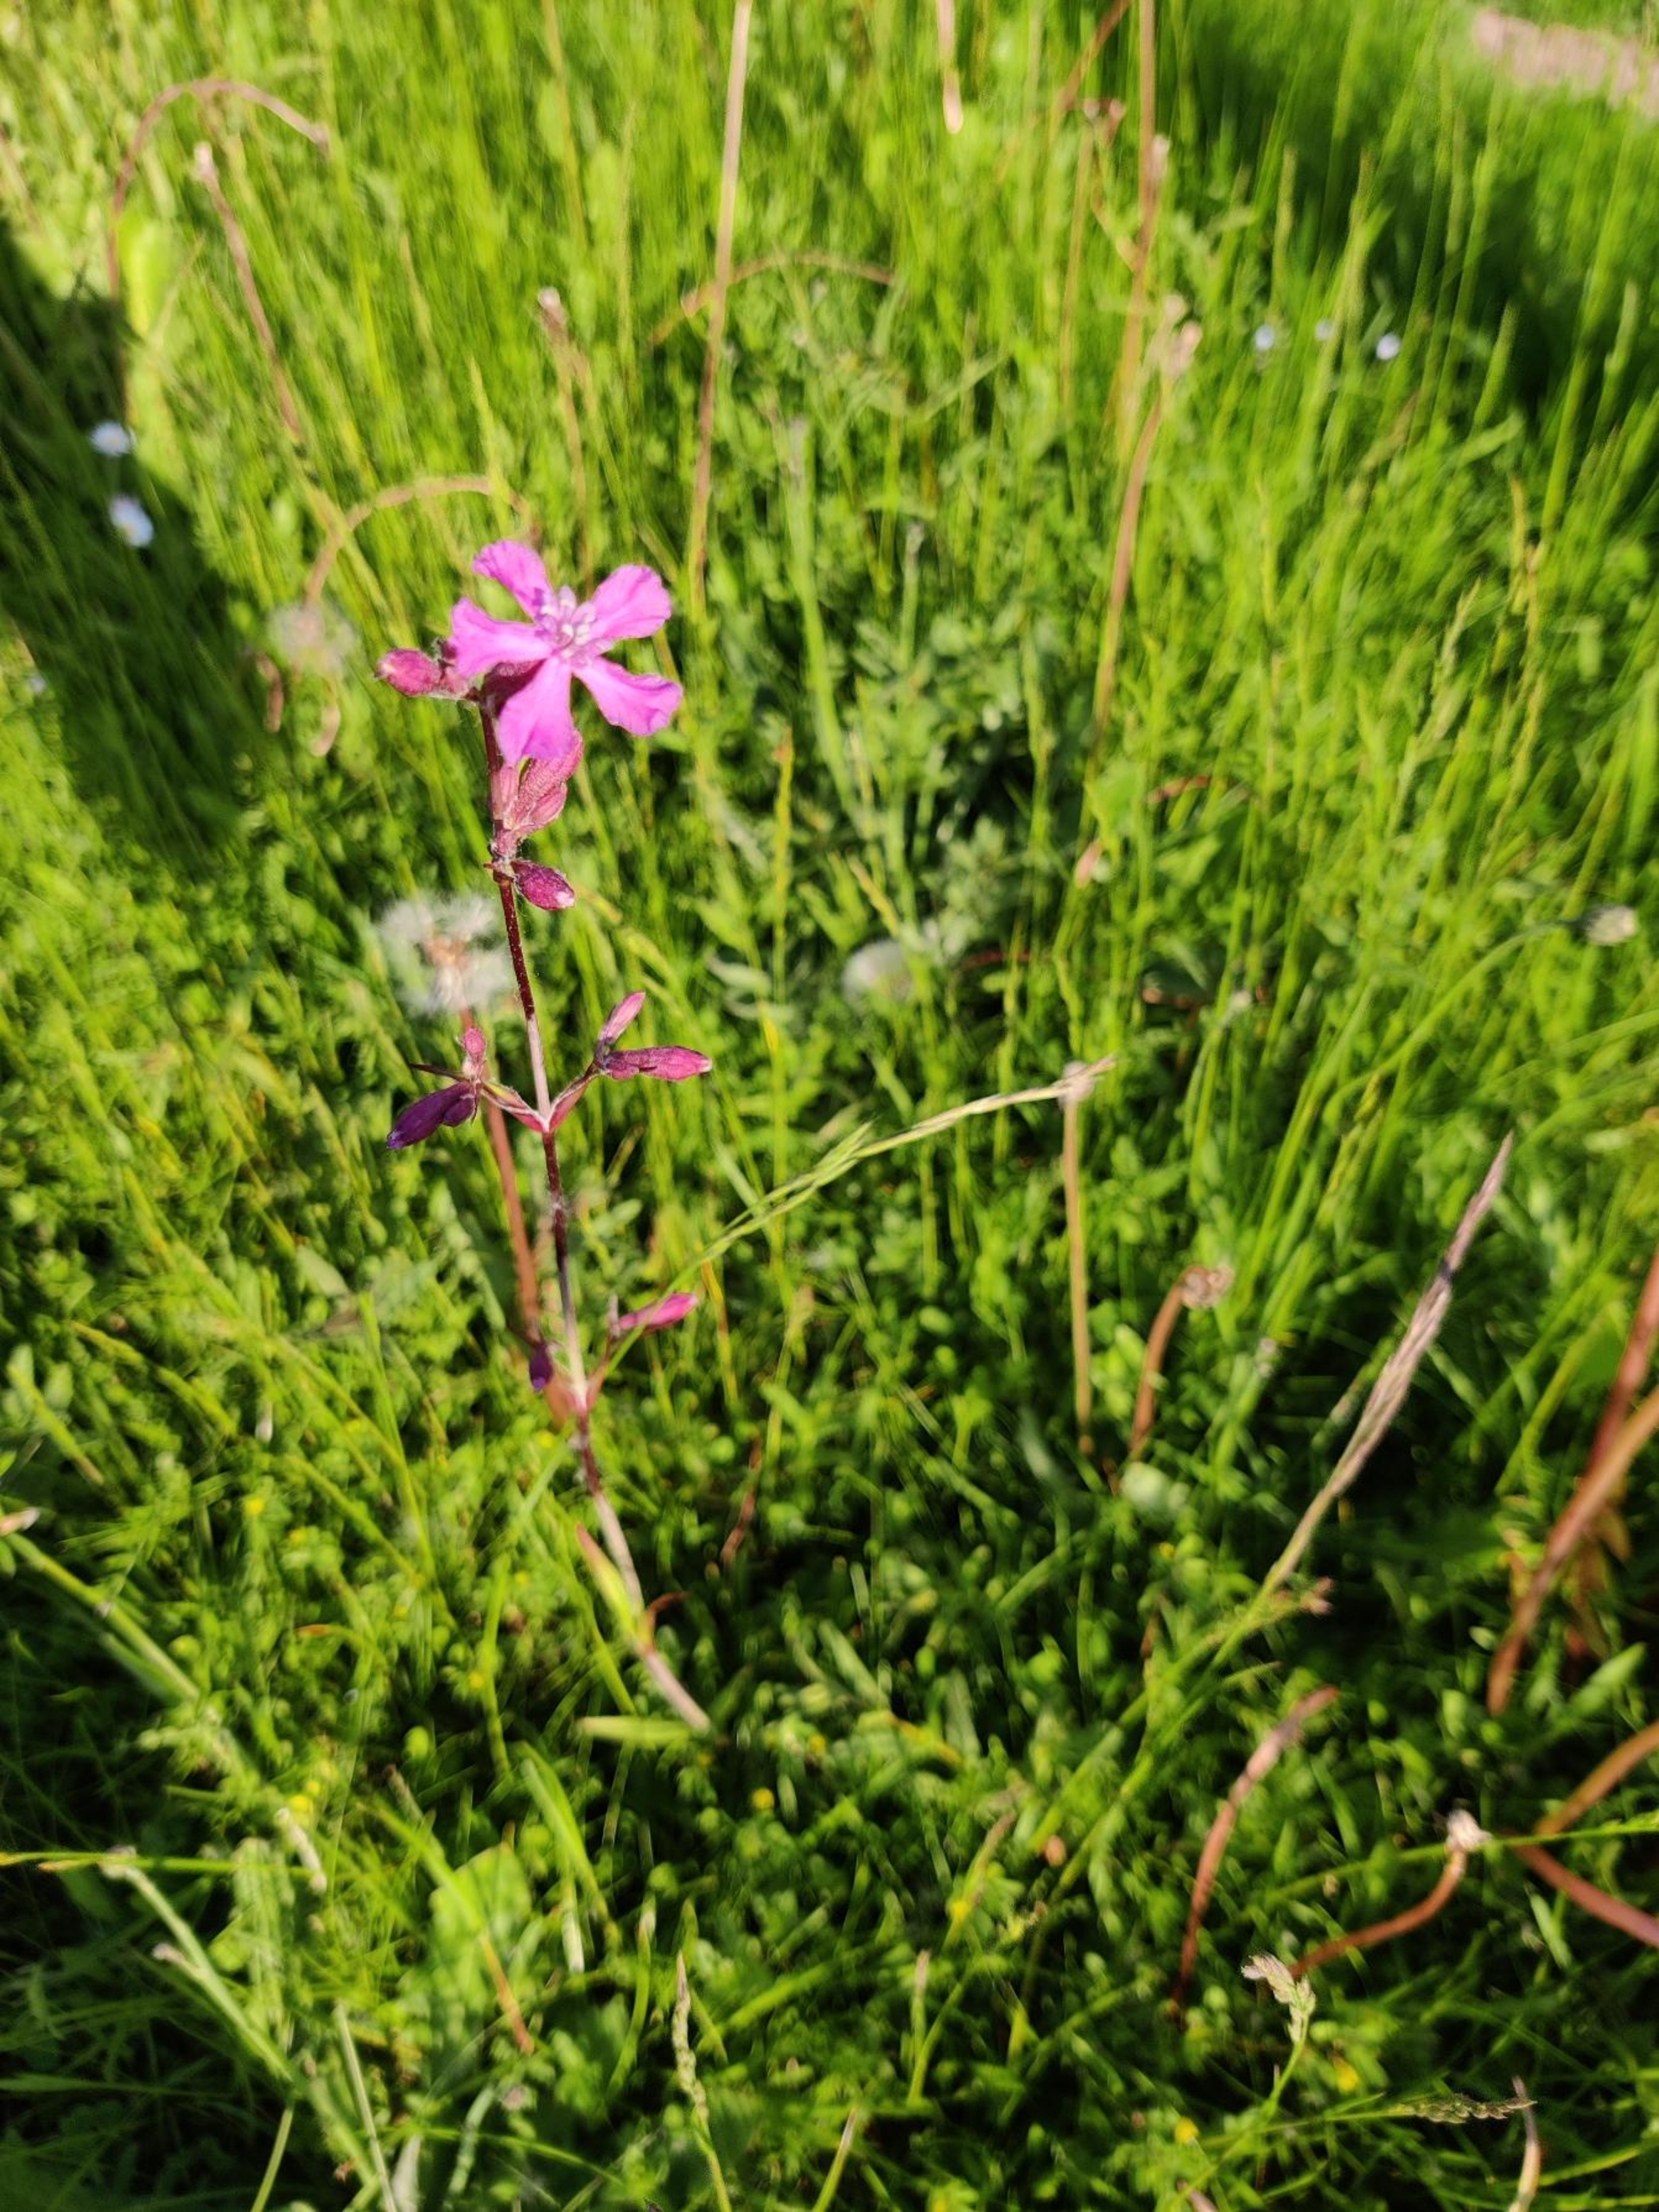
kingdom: Plantae
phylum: Tracheophyta
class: Magnoliopsida
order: Caryophyllales
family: Caryophyllaceae
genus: Viscaria
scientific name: Viscaria vulgaris
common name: Tjærenellike
